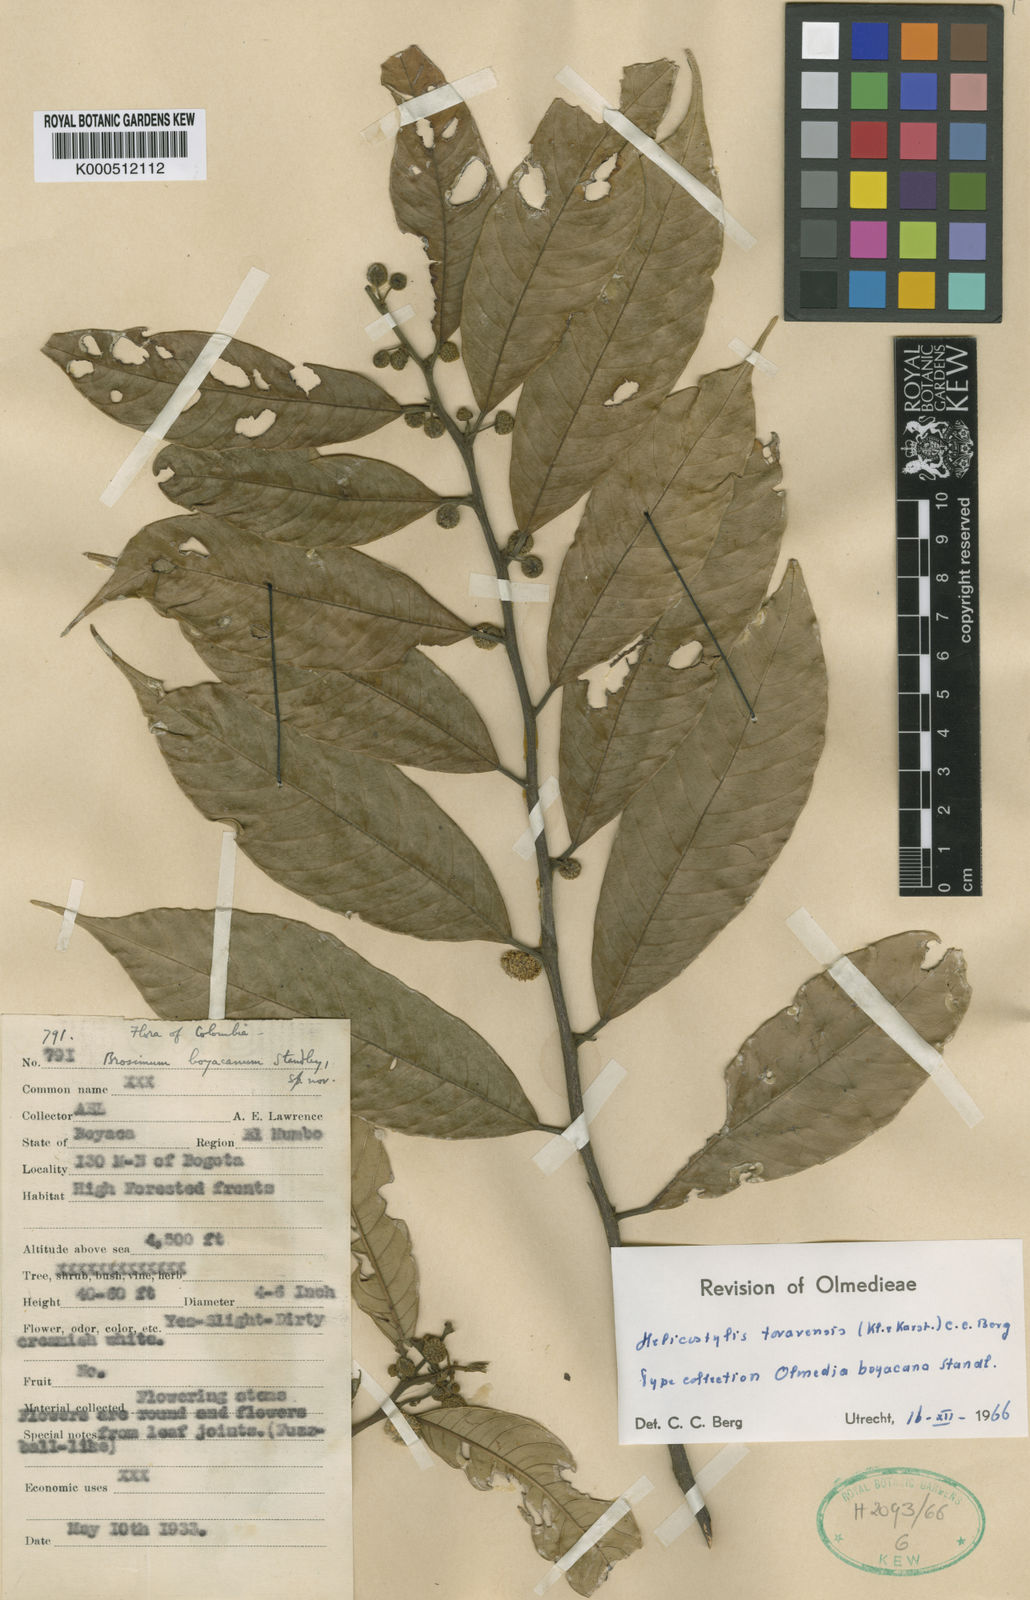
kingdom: Plantae
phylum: Tracheophyta
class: Magnoliopsida
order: Rosales
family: Moraceae
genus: Helicostylis
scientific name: Helicostylis tovarensis
